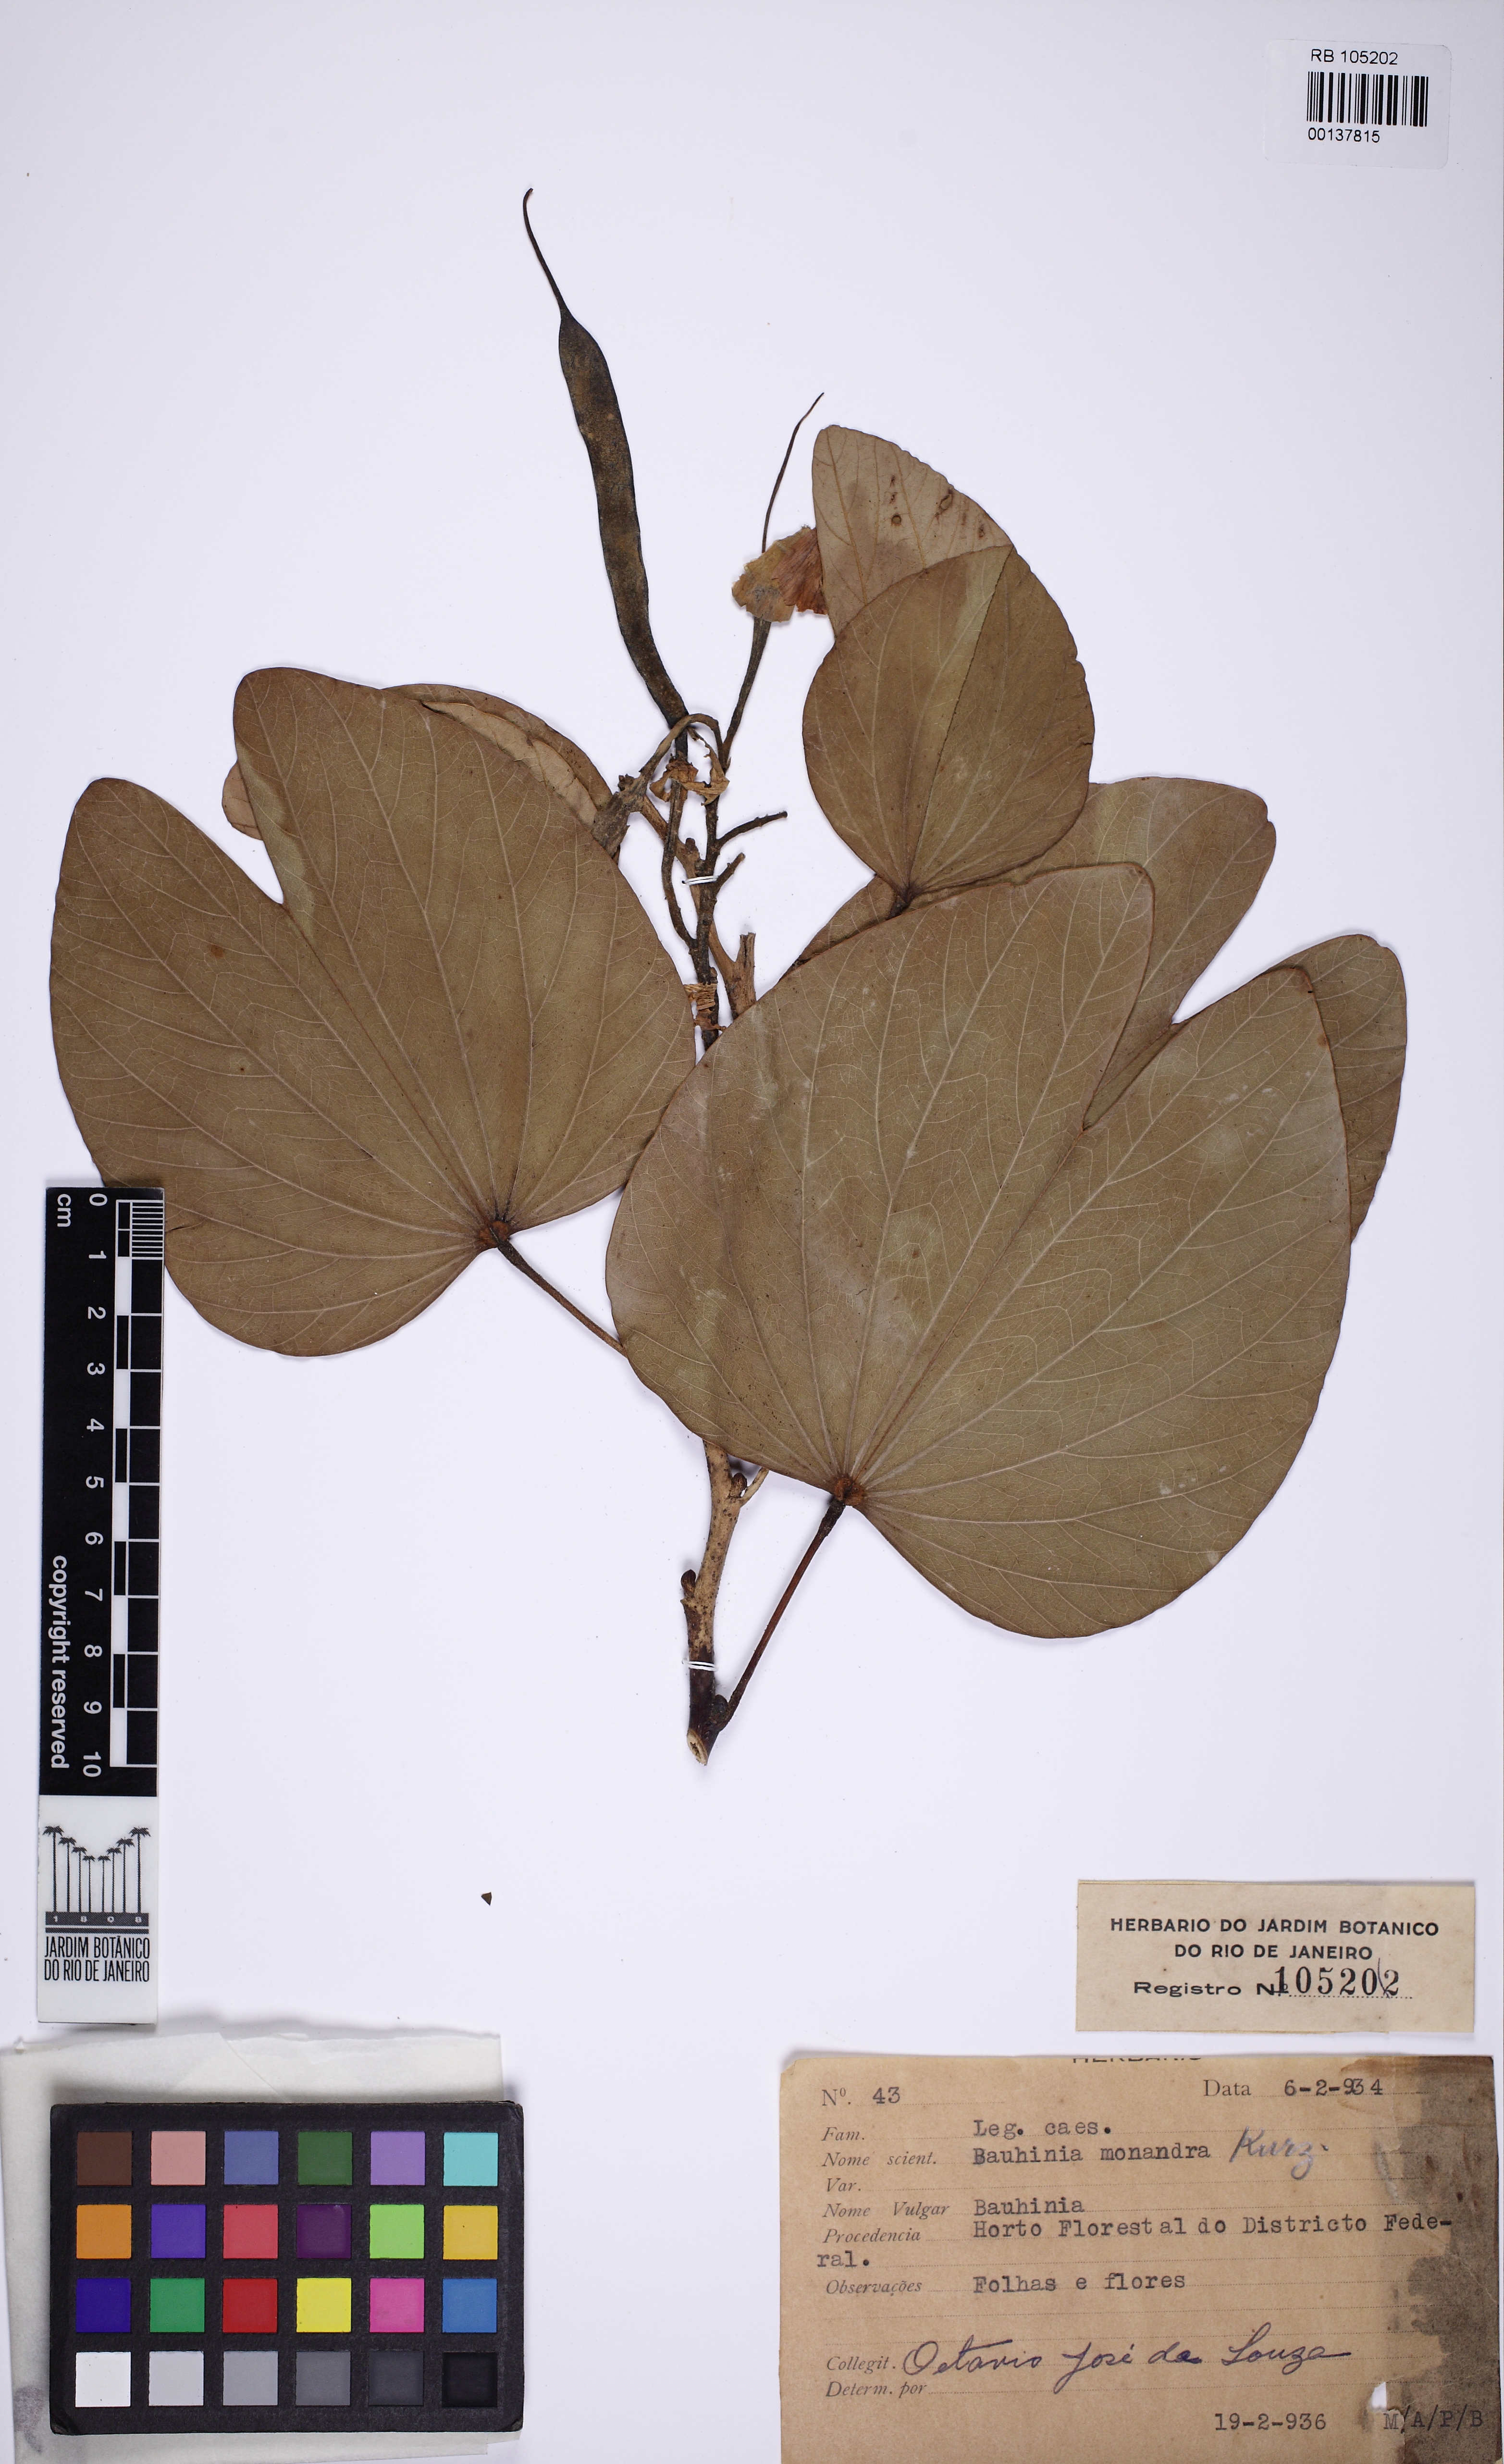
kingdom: Plantae
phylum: Tracheophyta
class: Magnoliopsida
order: Fabales
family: Fabaceae
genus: Bauhinia
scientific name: Bauhinia monandra
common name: Napoleon's plume
